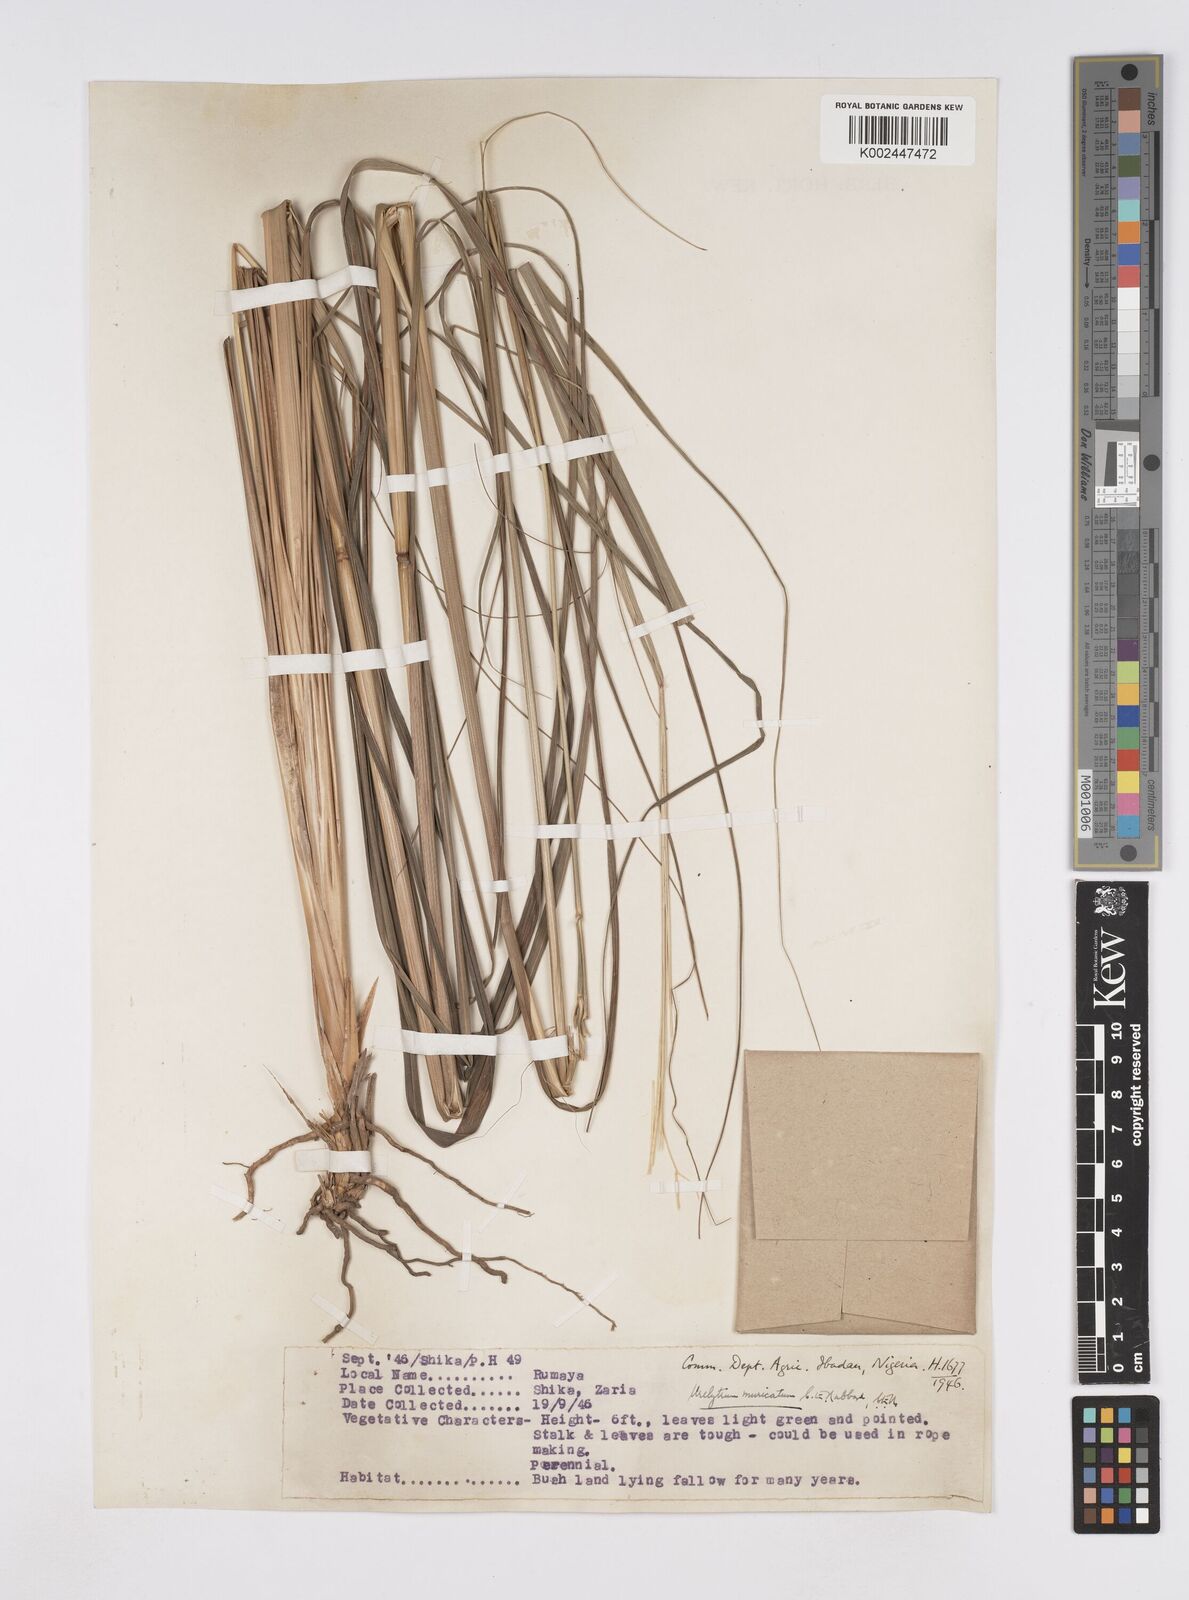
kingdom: Plantae
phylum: Tracheophyta
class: Liliopsida
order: Poales
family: Poaceae
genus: Urelytrum
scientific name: Urelytrum muricatum
